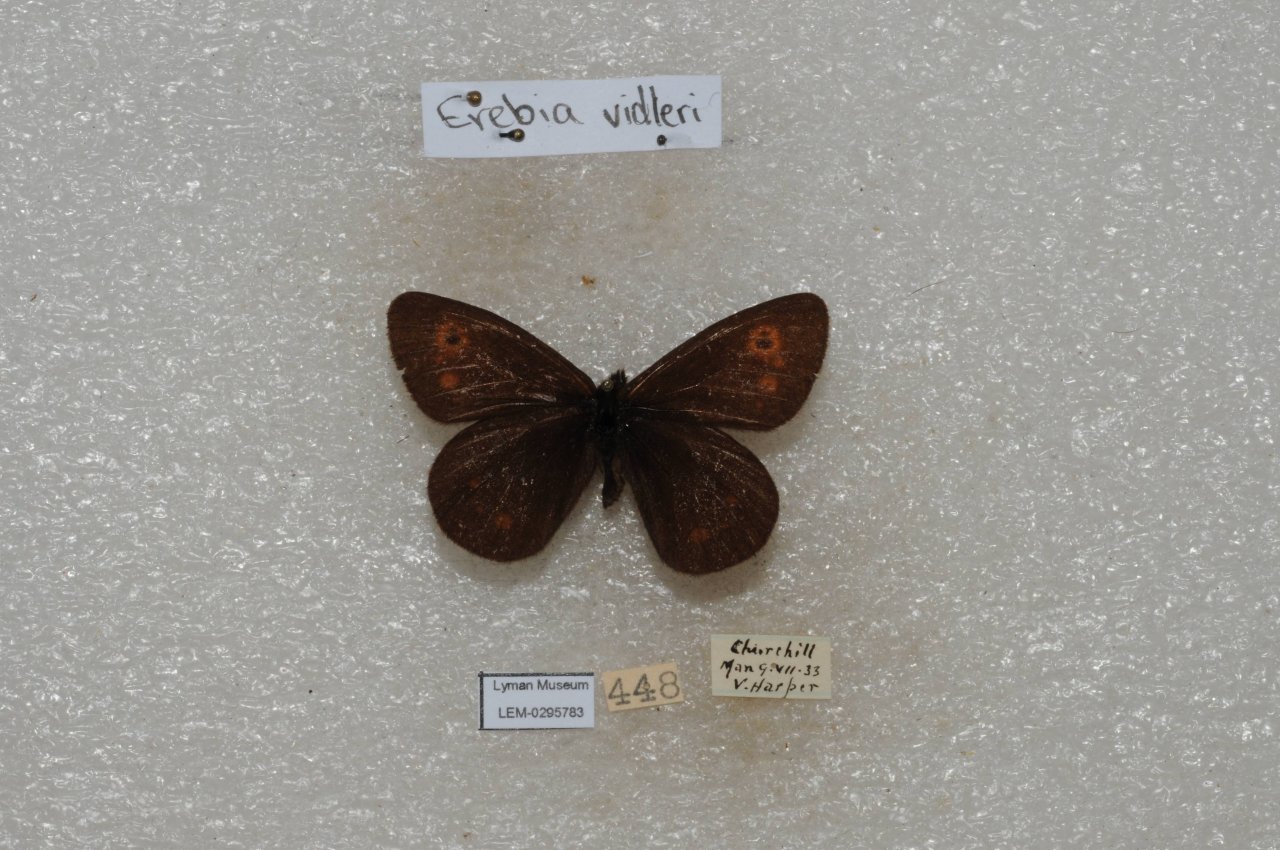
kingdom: Animalia
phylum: Arthropoda
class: Insecta
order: Lepidoptera
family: Nymphalidae
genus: Erebia
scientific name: Erebia rossii
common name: Ross's Alpine
